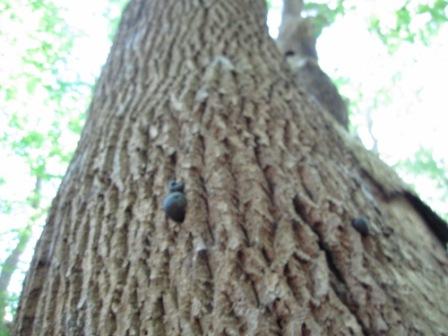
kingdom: Fungi
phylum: Ascomycota
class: Sordariomycetes
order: Xylariales
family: Hypoxylaceae
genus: Daldinia
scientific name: Daldinia concentrica
